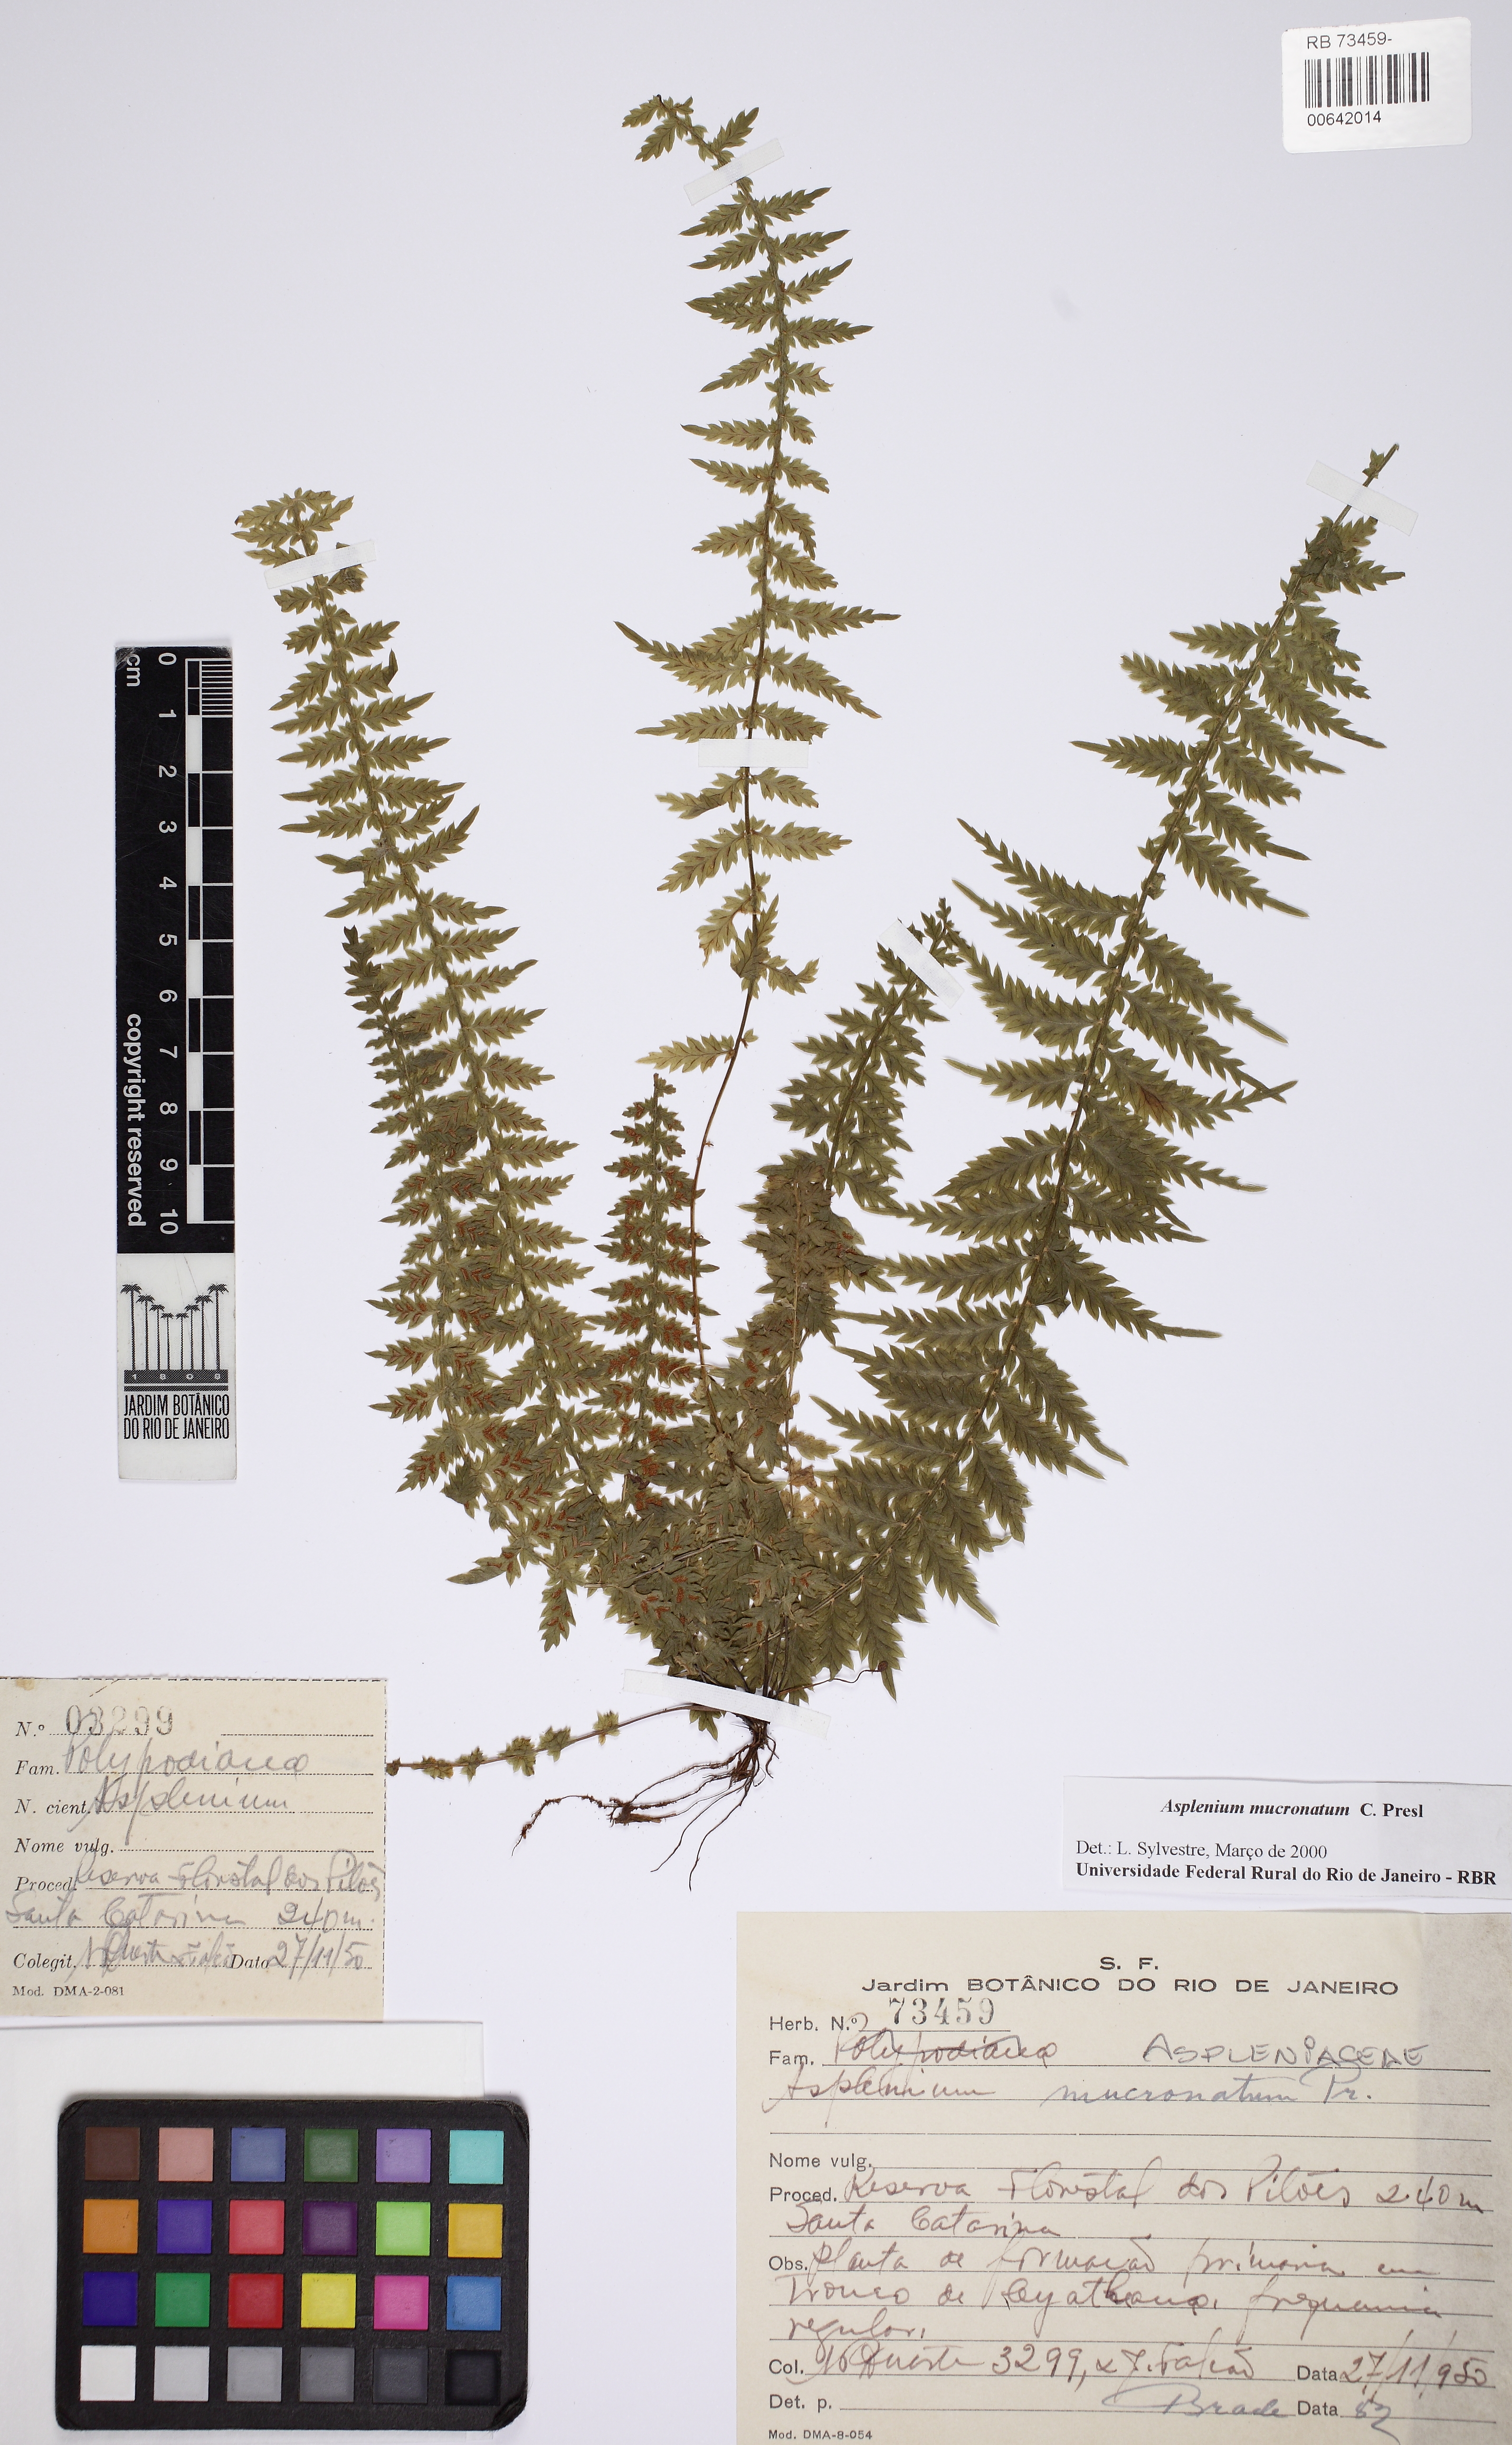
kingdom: Plantae
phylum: Tracheophyta
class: Polypodiopsida
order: Polypodiales
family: Aspleniaceae
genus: Asplenium
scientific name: Asplenium mucronatum
